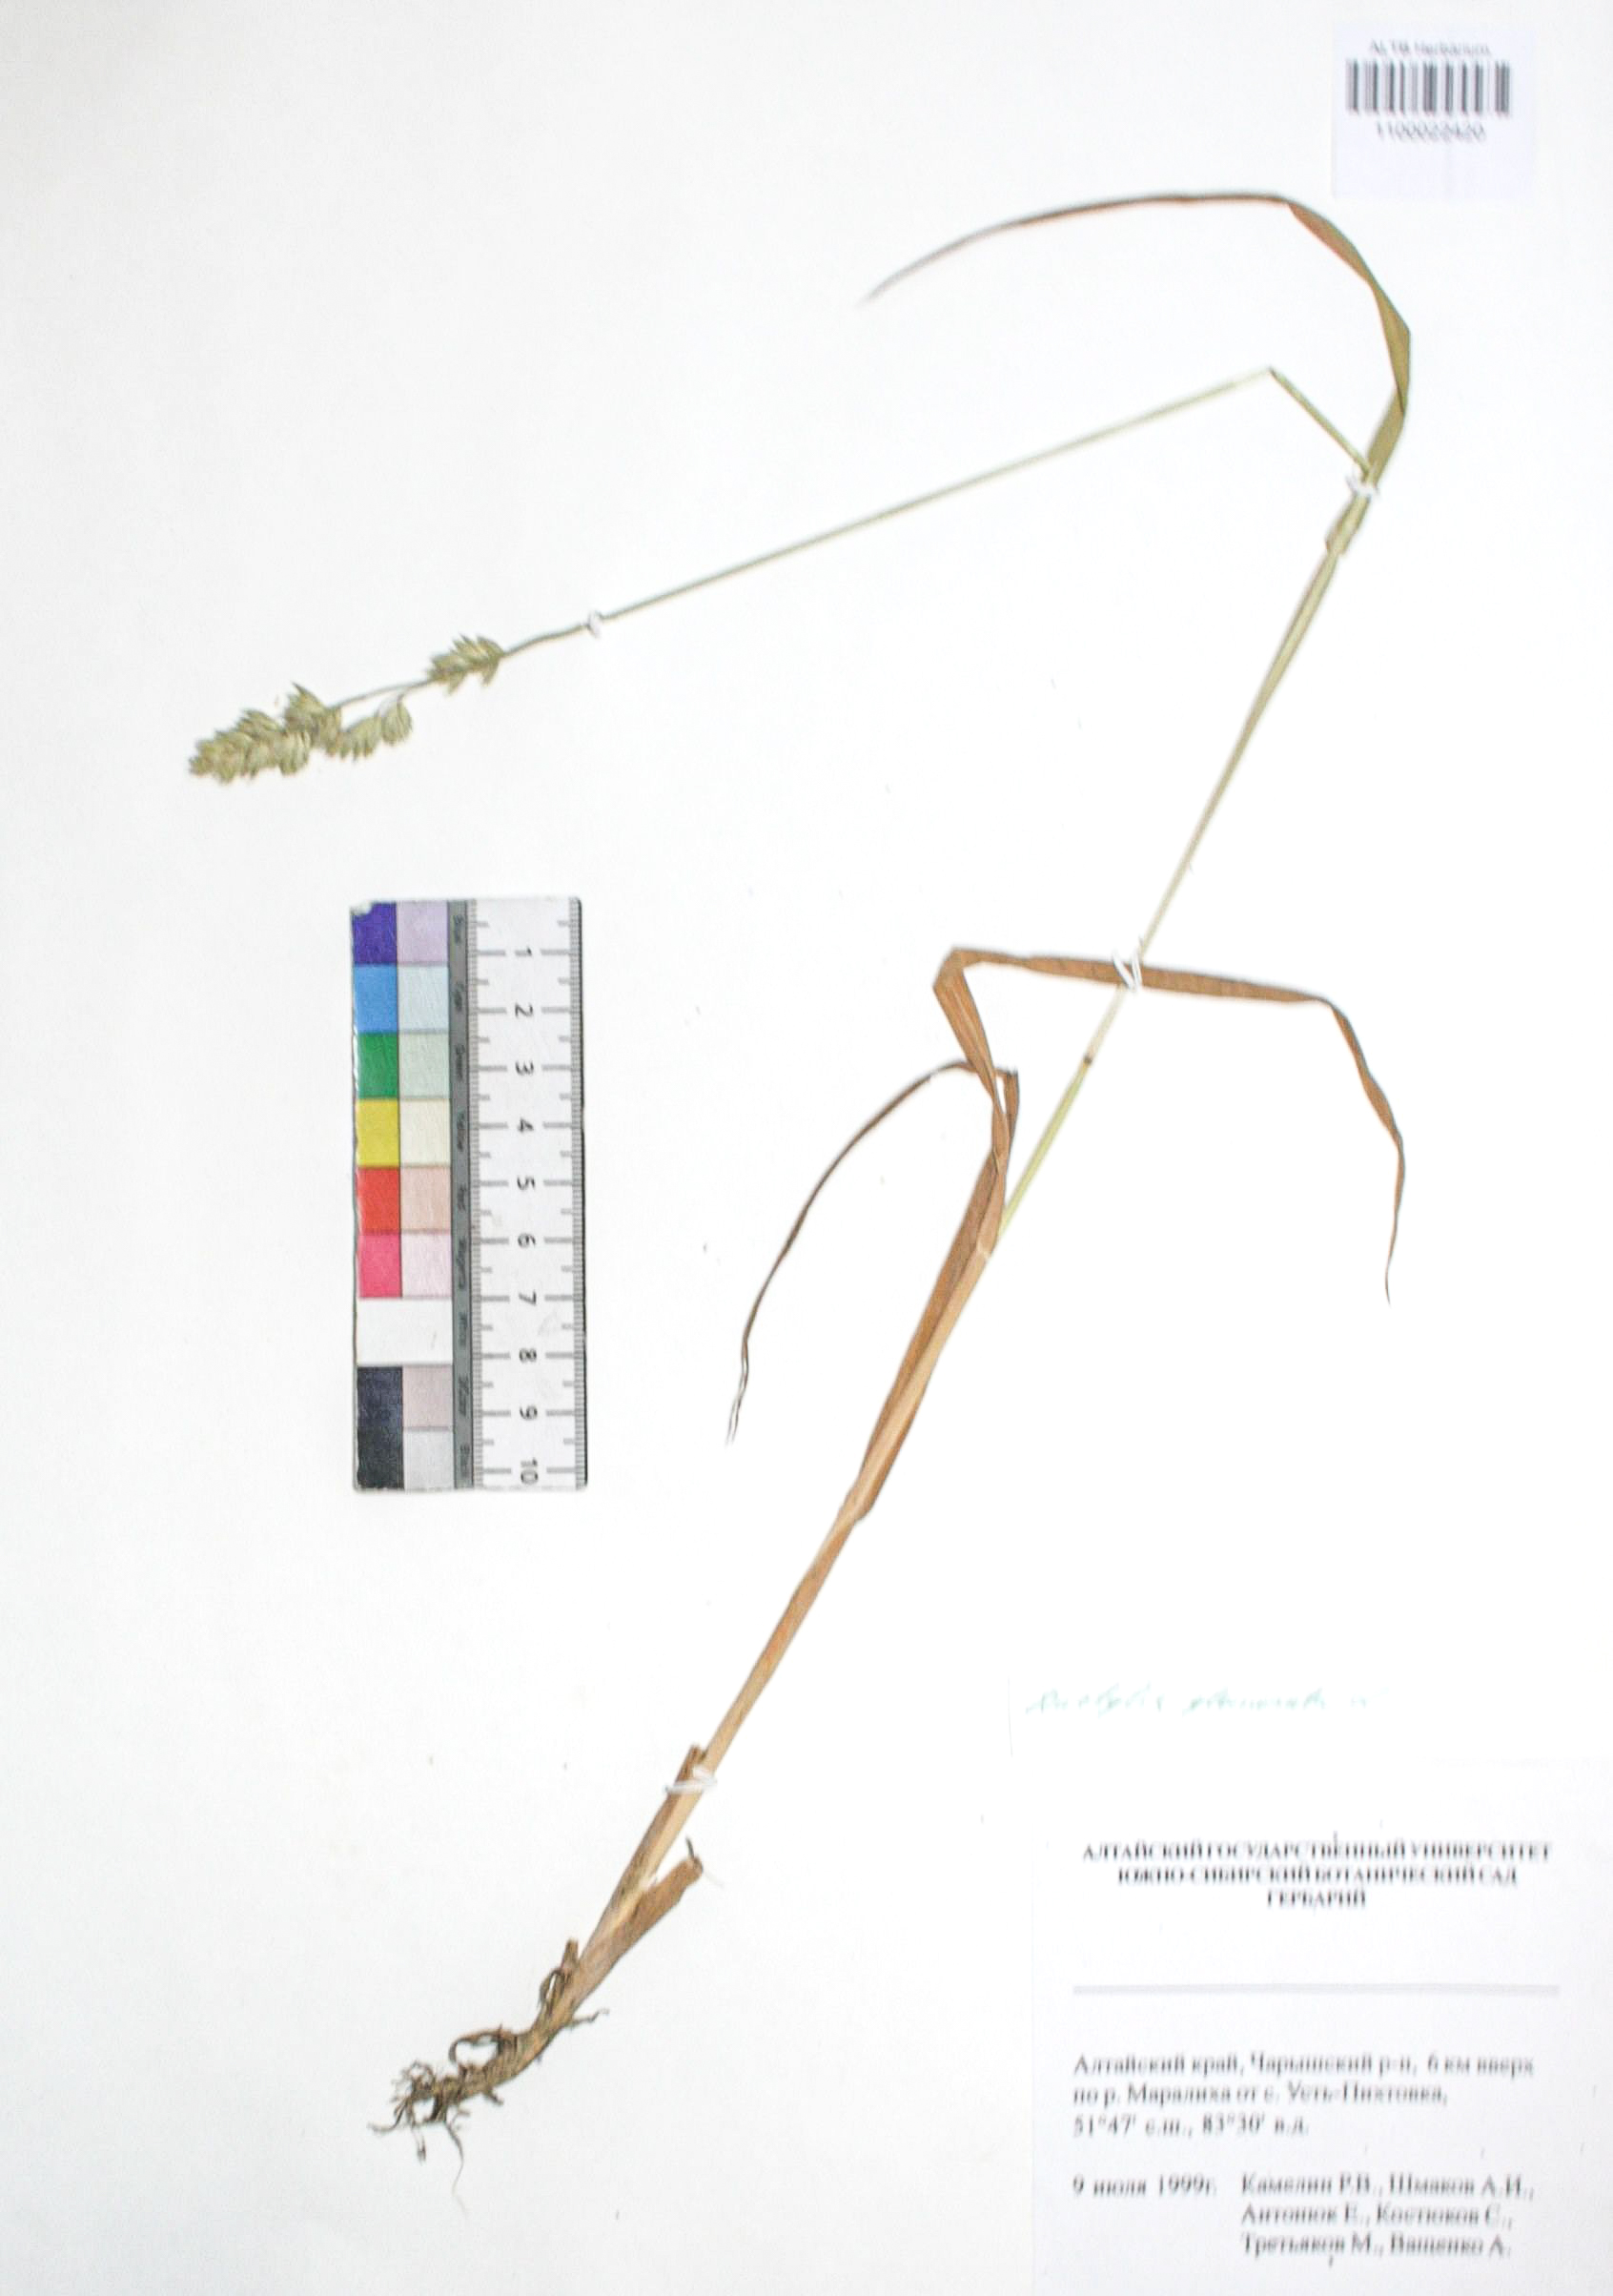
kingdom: Plantae
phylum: Tracheophyta
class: Liliopsida
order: Poales
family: Poaceae
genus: Dactylis
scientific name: Dactylis glomerata
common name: Orchardgrass
